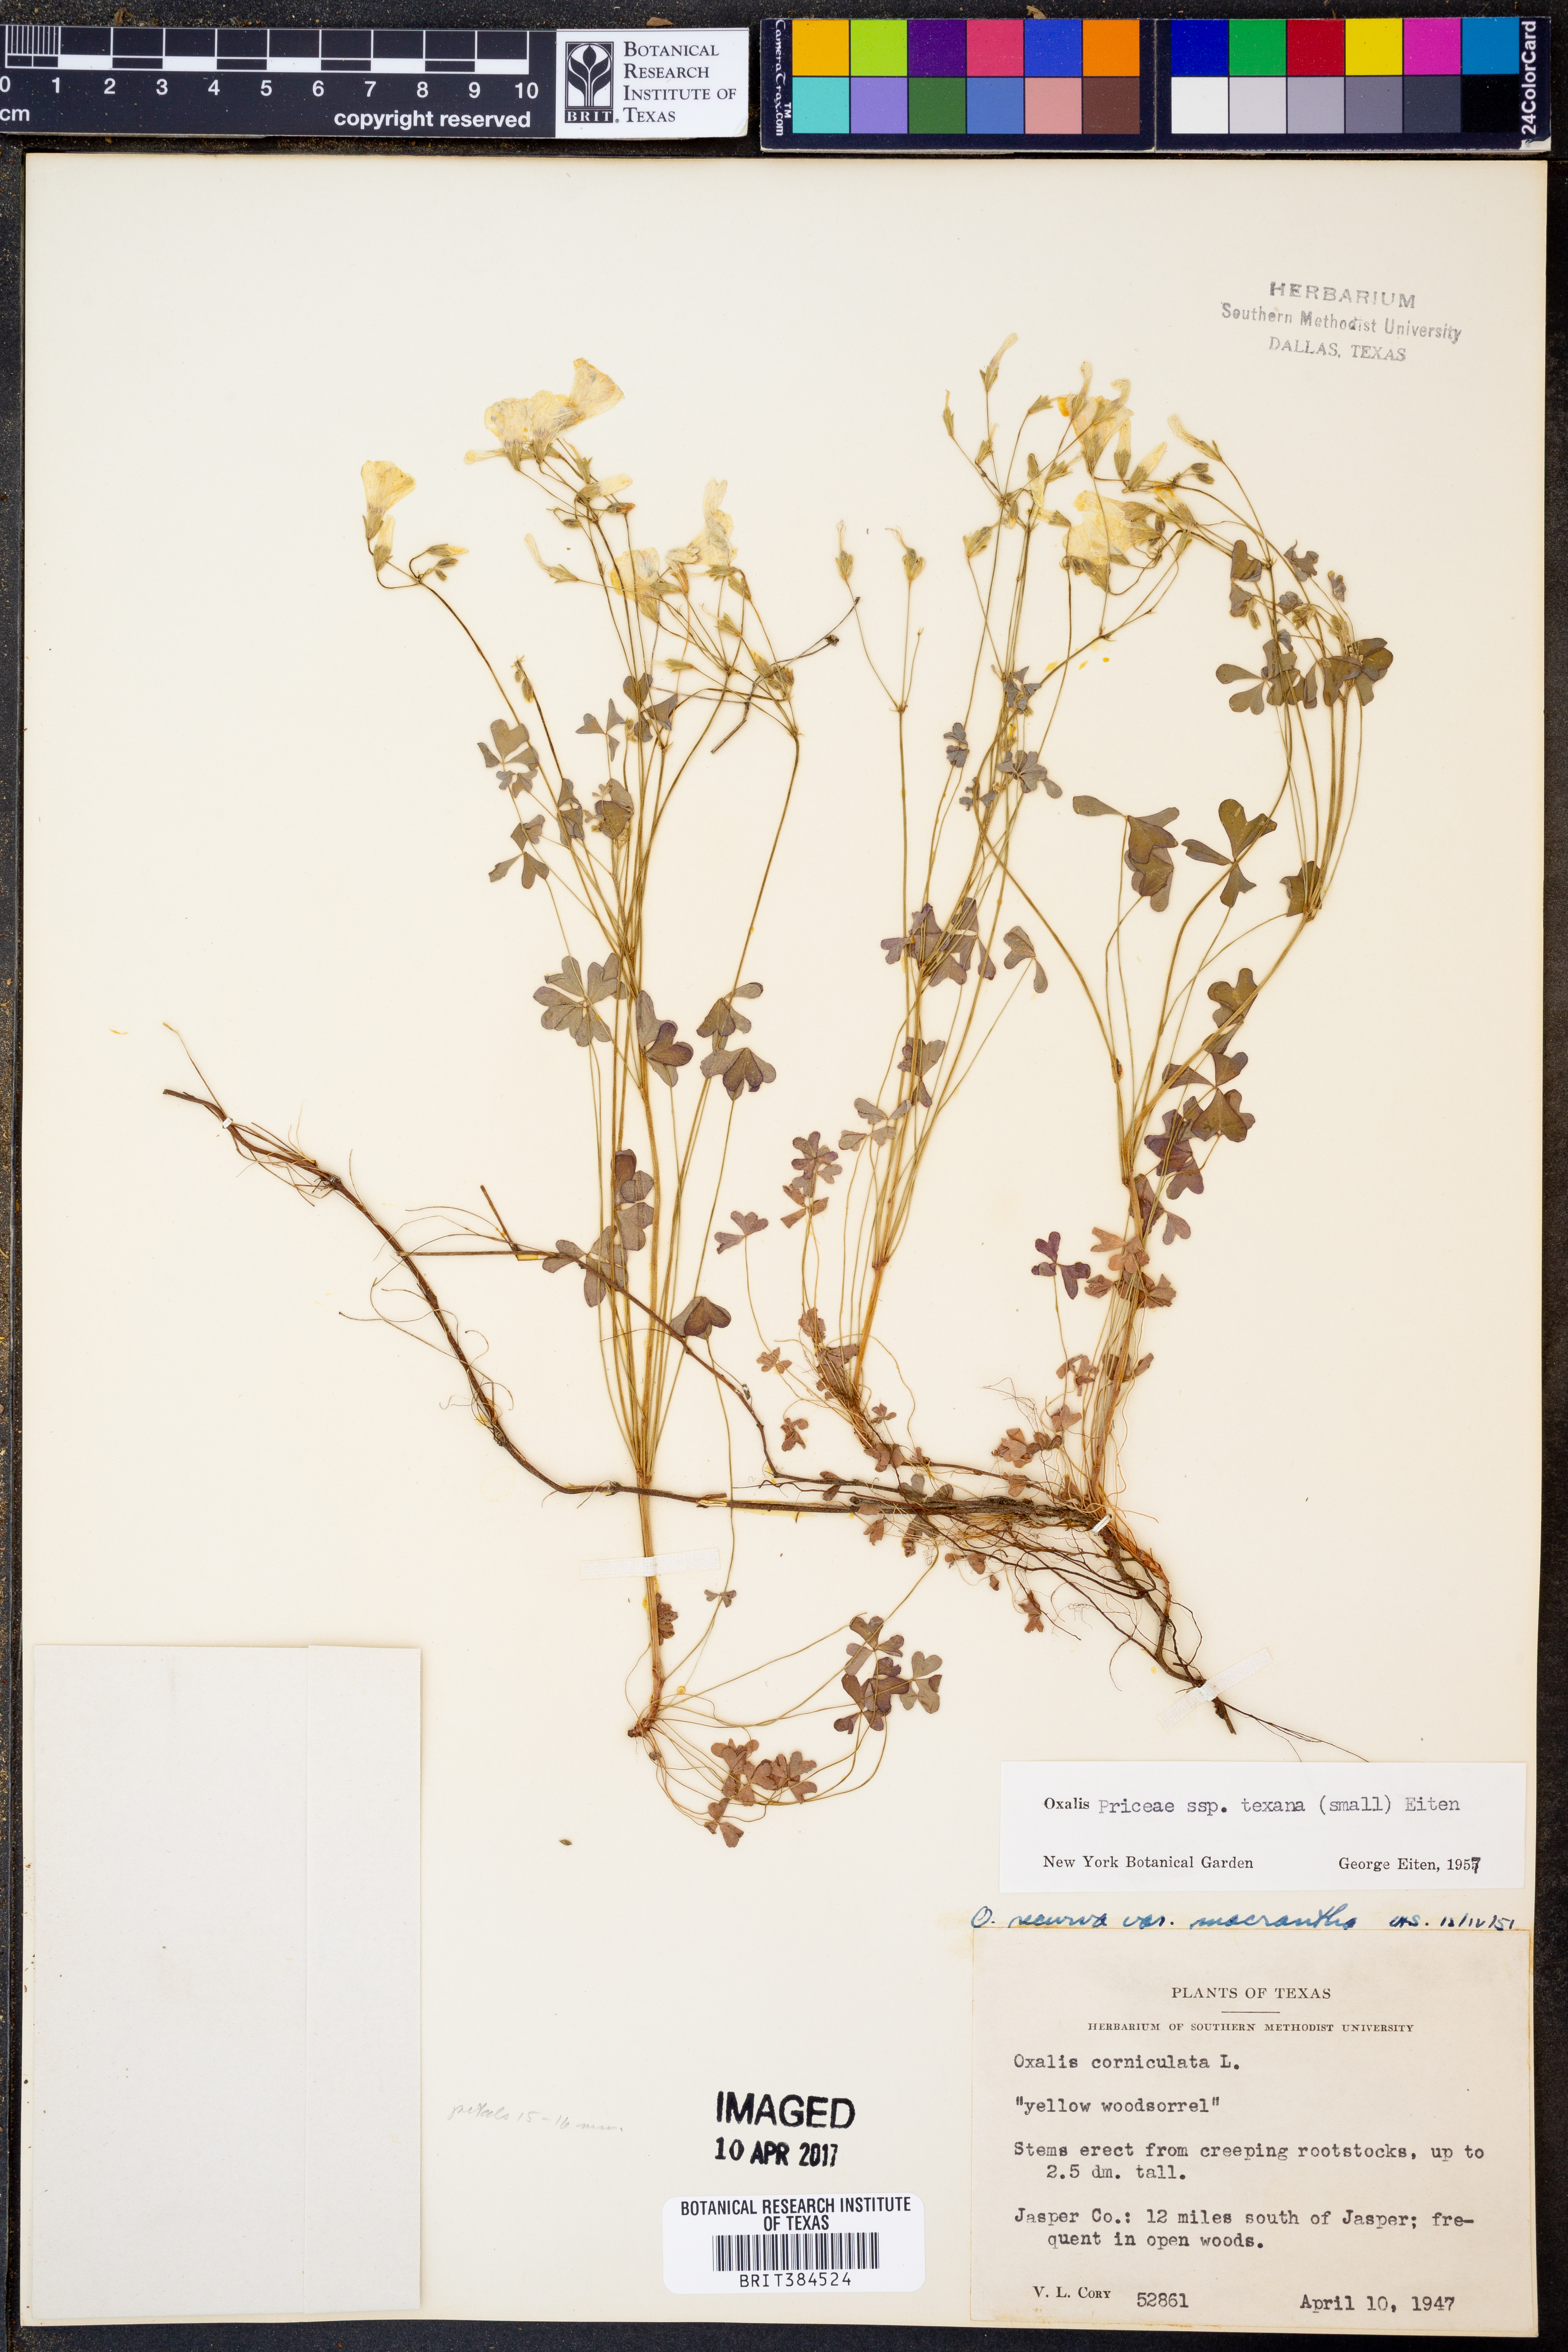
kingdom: Plantae
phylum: Tracheophyta
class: Magnoliopsida
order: Oxalidales
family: Oxalidaceae
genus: Oxalis
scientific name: Oxalis texana
